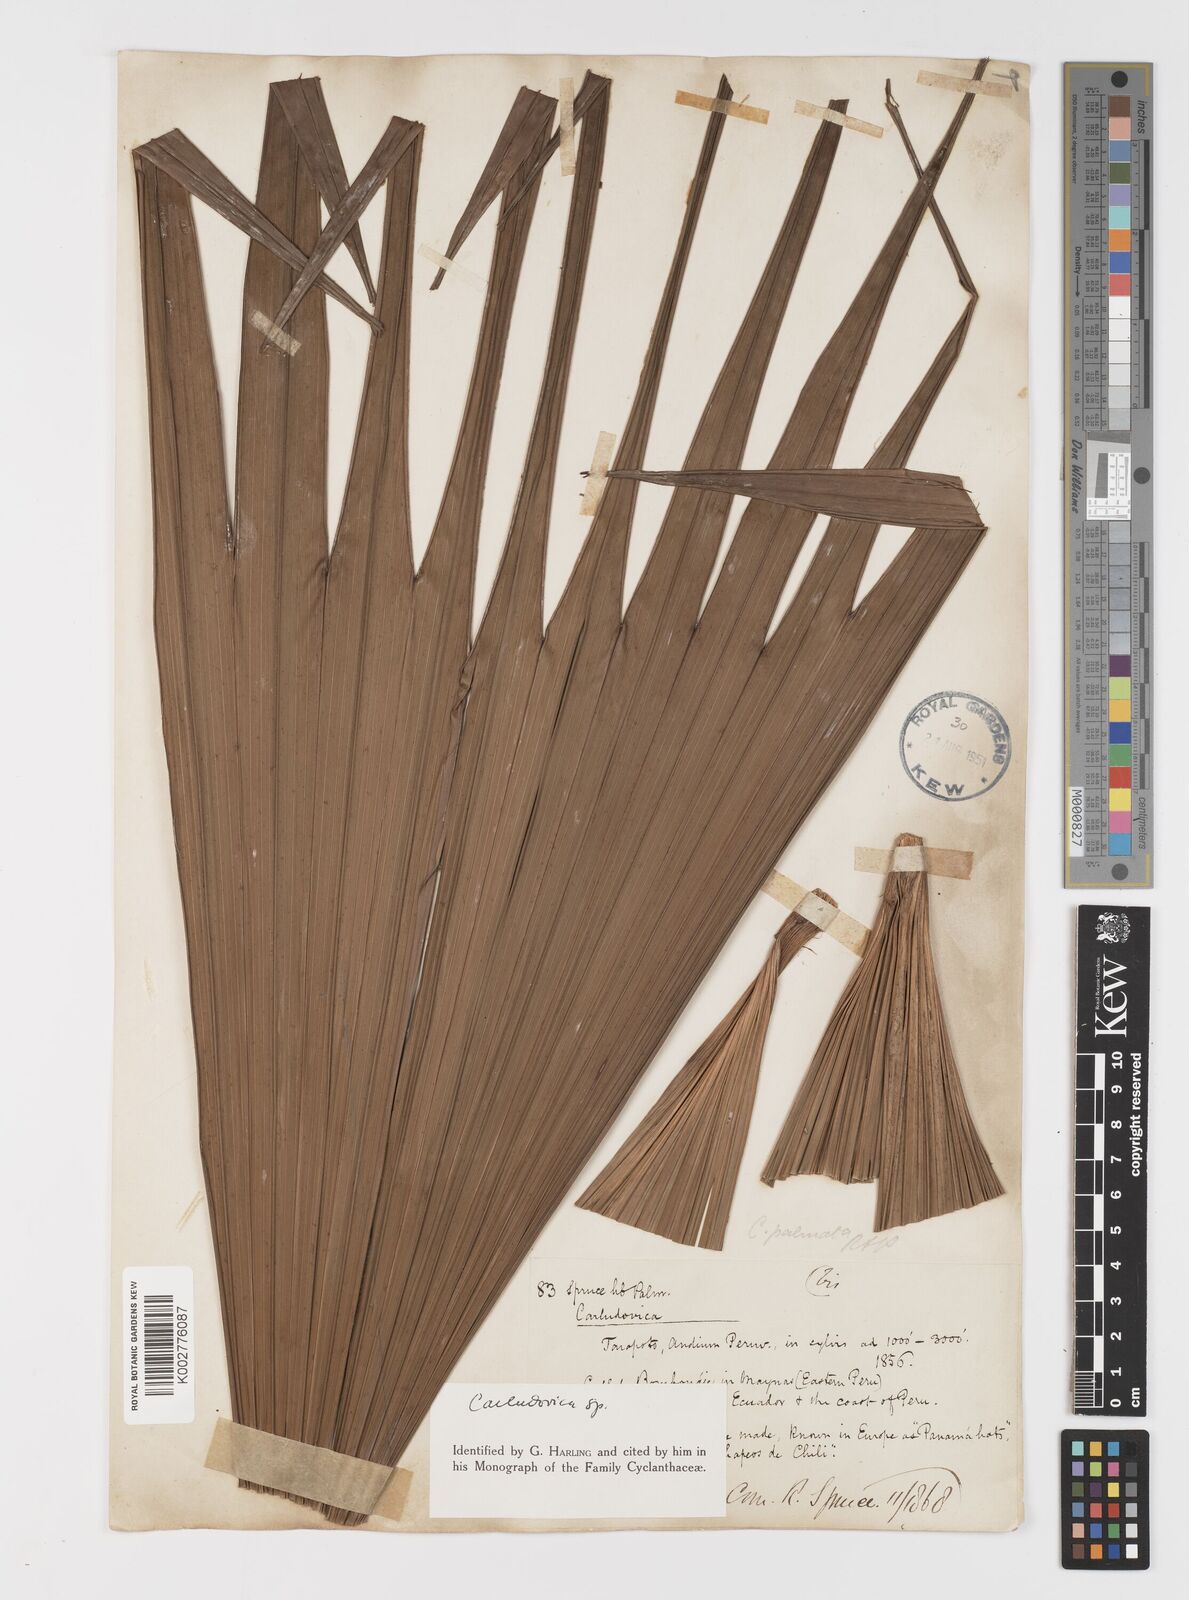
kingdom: Plantae
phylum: Tracheophyta
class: Liliopsida
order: Pandanales
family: Cyclanthaceae
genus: Carludovica
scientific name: Carludovica palmata
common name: Panama hat plant
